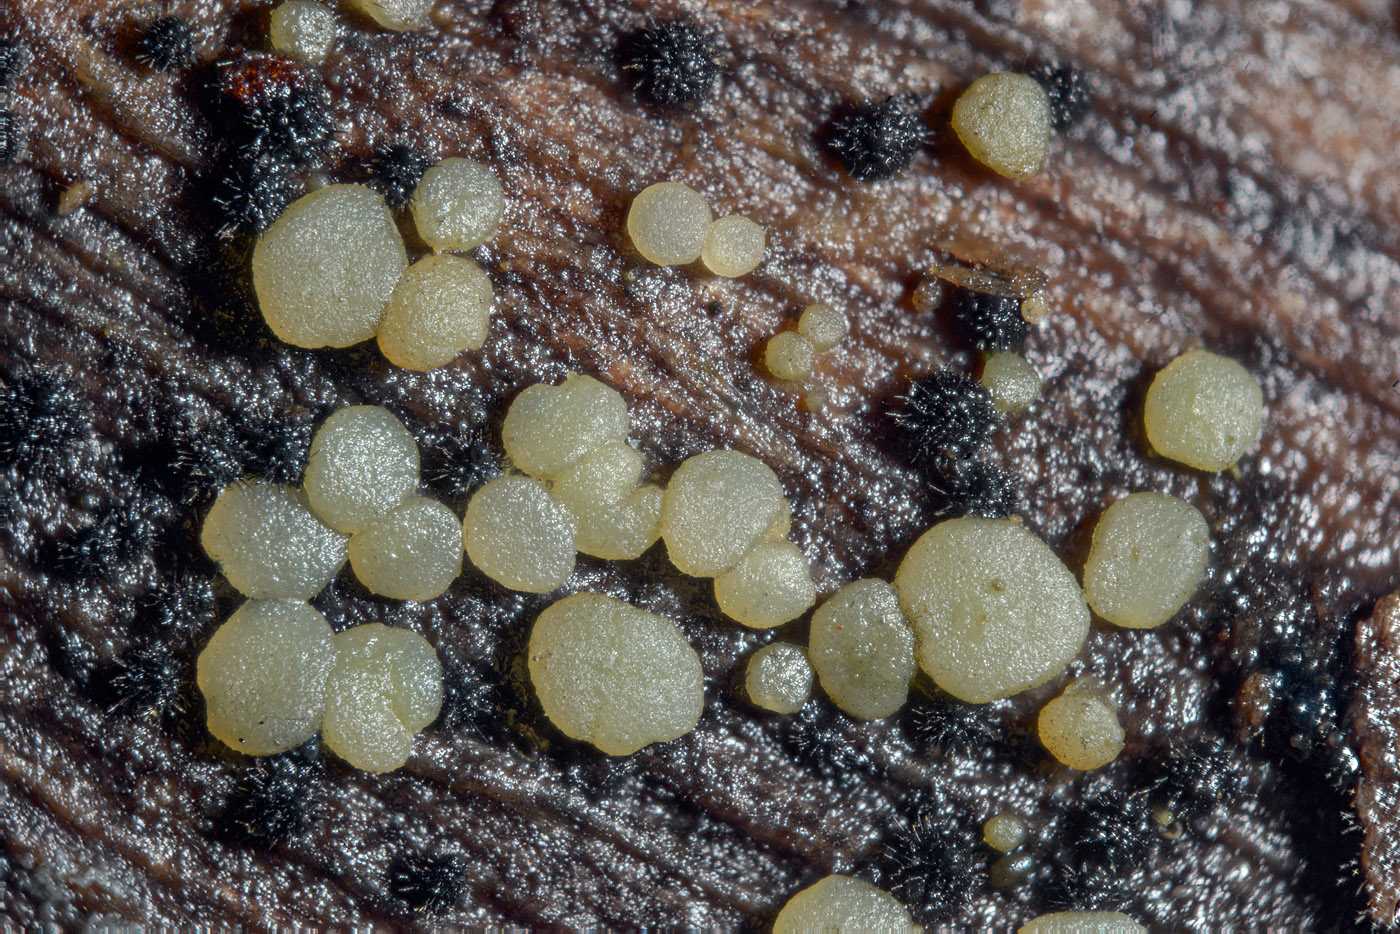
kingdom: Fungi
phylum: Ascomycota
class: Leotiomycetes
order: Leotiales
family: Tympanidaceae
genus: Claussenomyces
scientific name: Claussenomyces prasinulus
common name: bleggrøn linseskive
